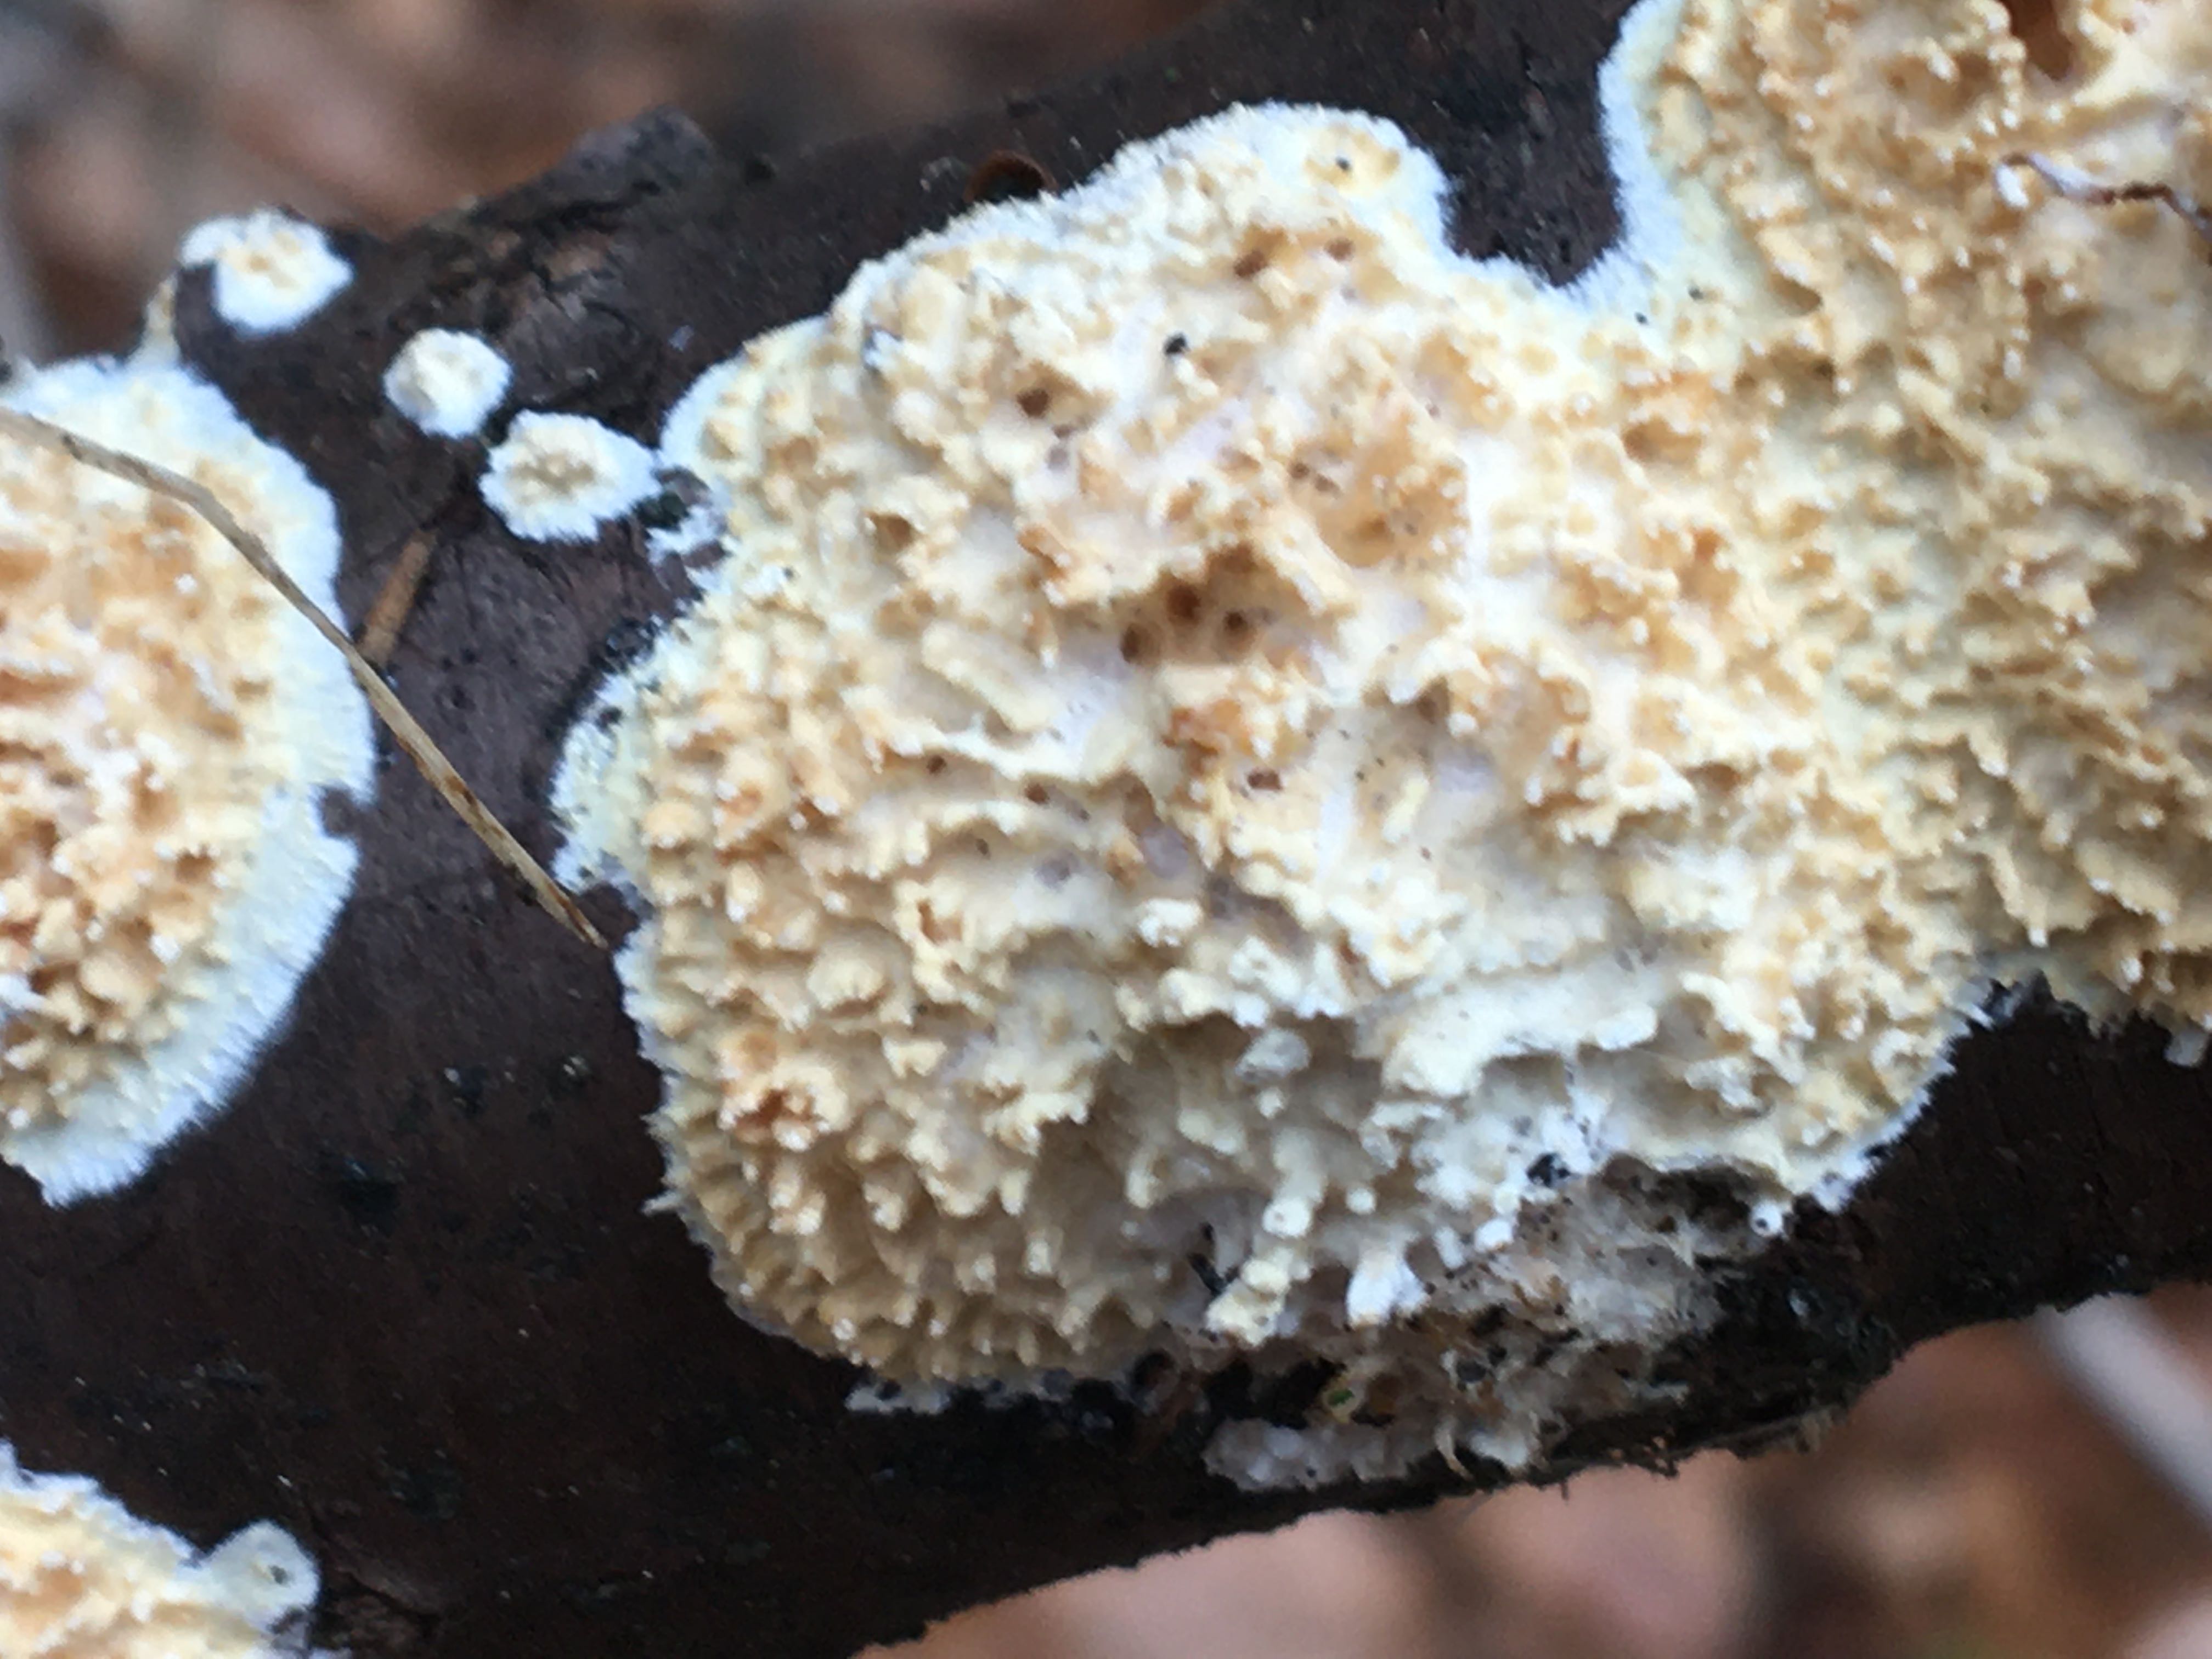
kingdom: Fungi
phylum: Basidiomycota
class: Agaricomycetes
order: Hymenochaetales
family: Schizoporaceae
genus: Xylodon
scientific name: Xylodon radula
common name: grovtandet kalkskind
